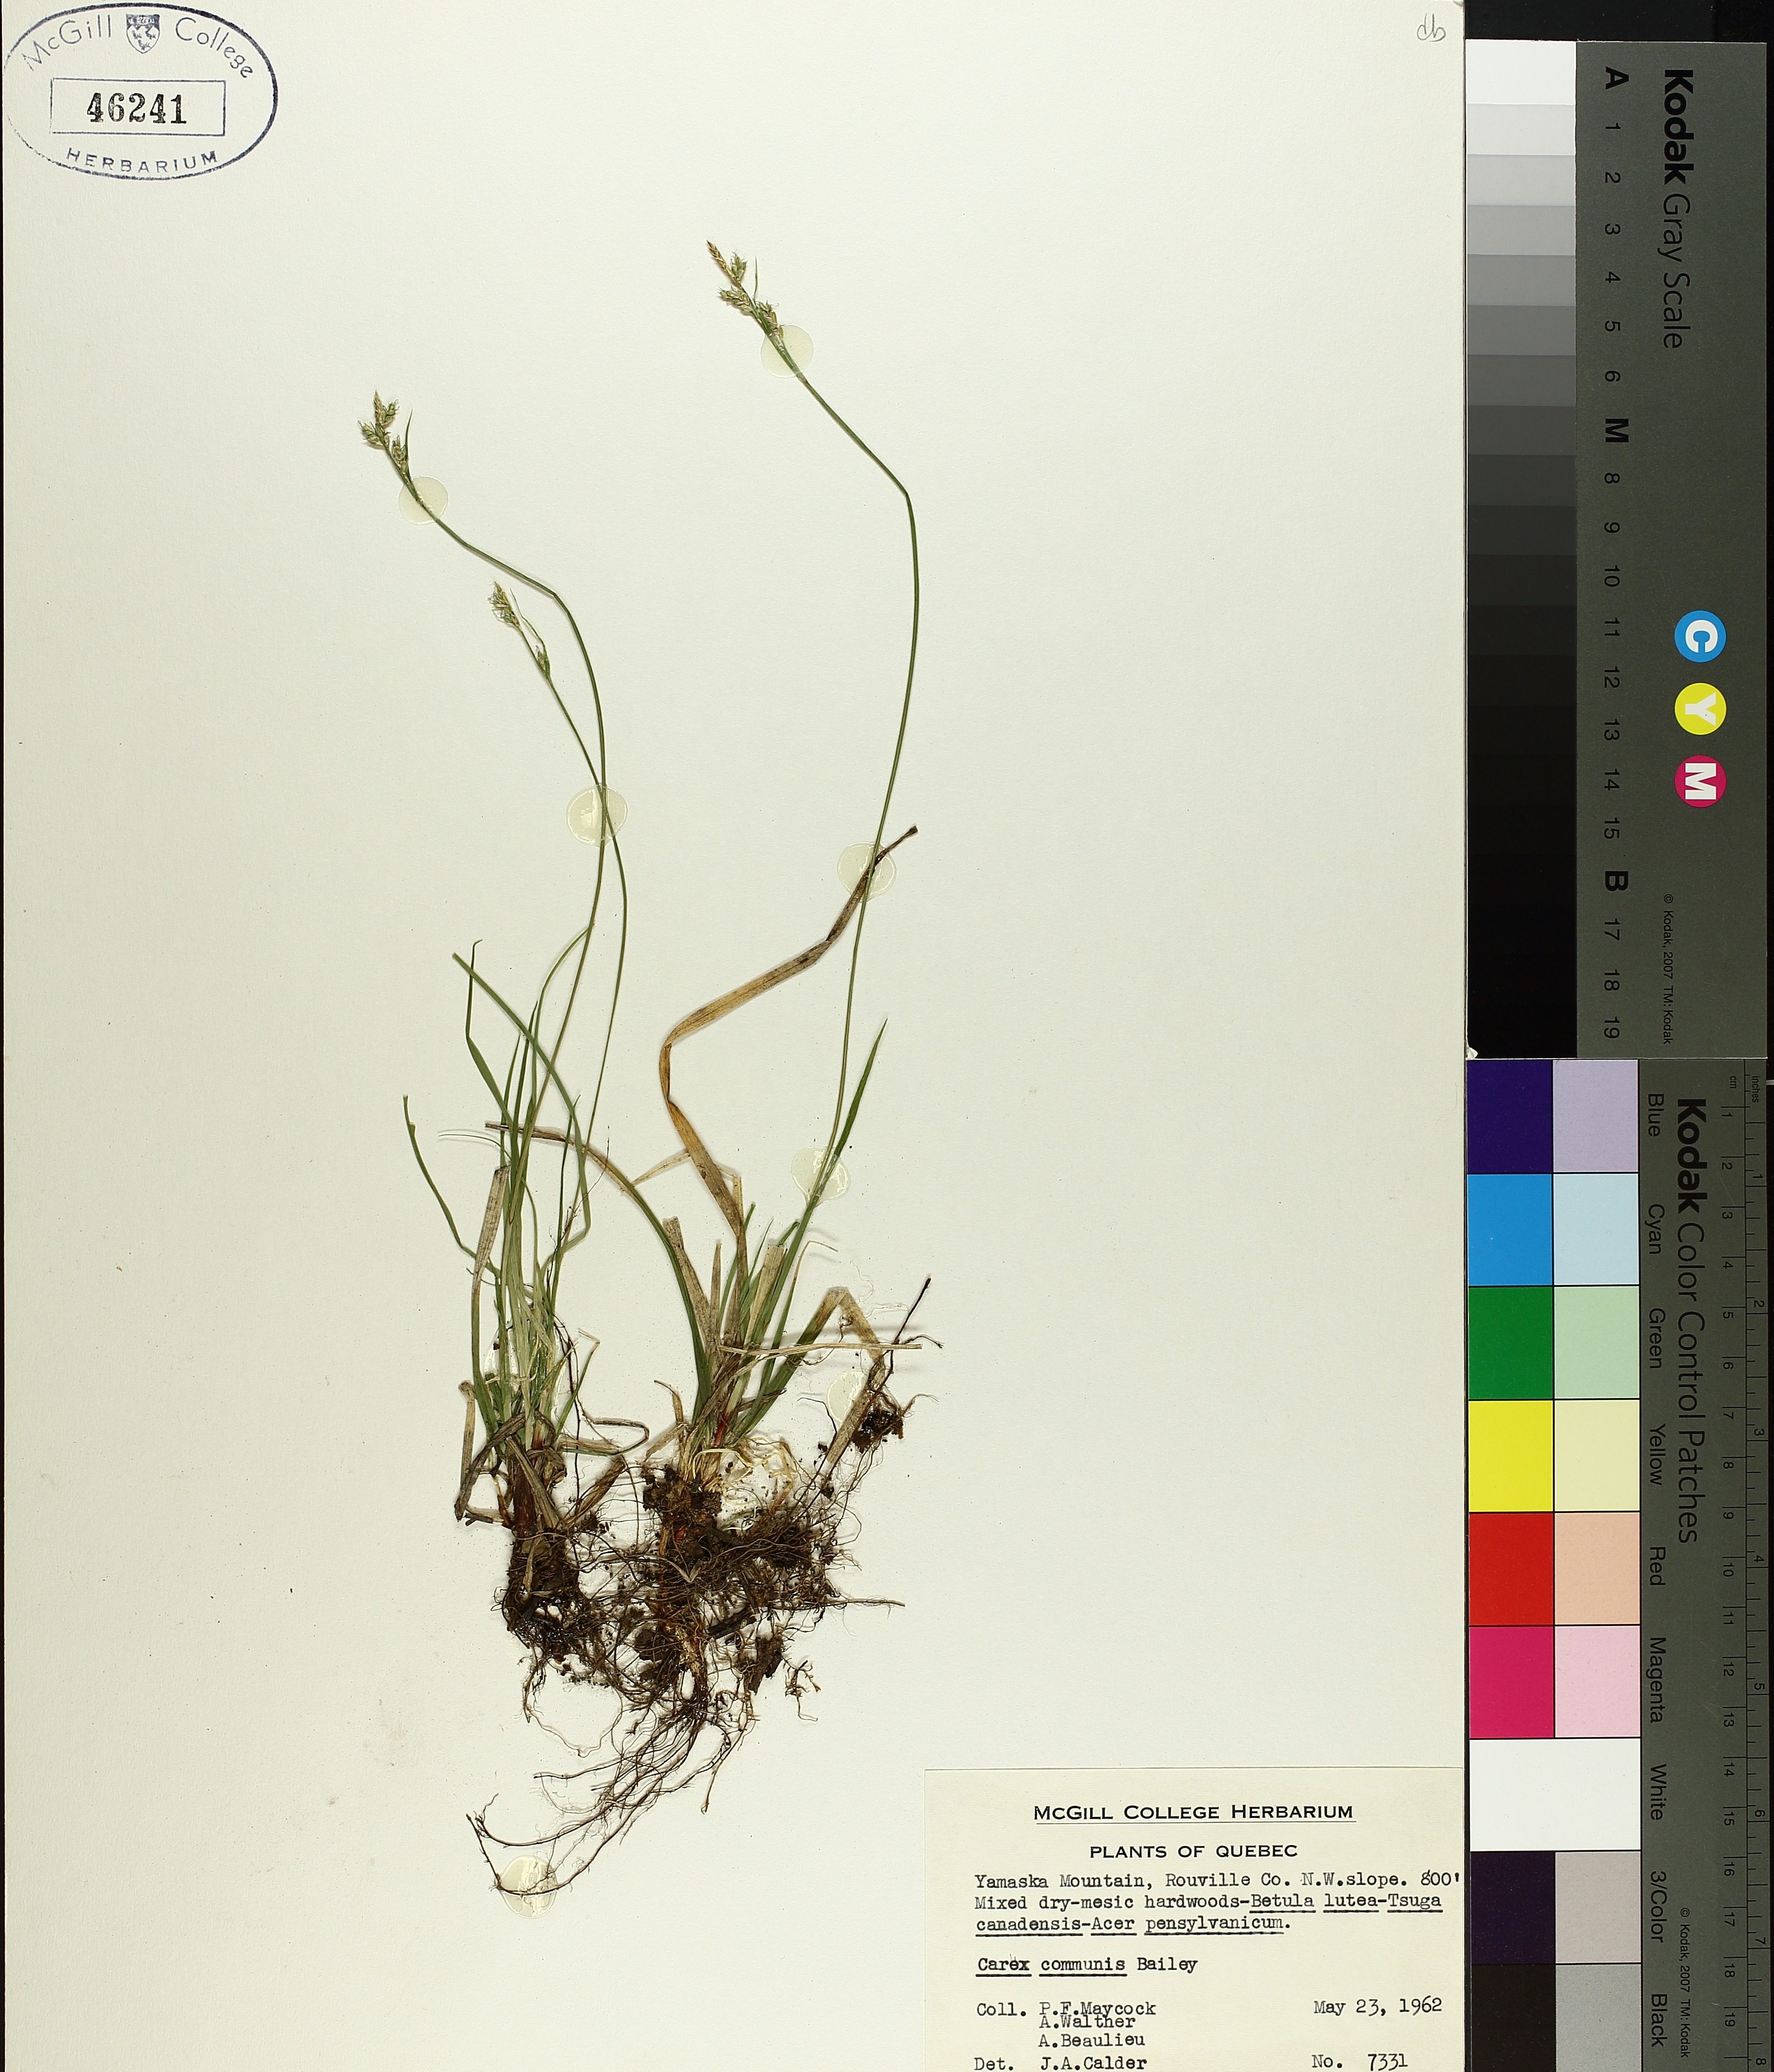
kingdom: Plantae
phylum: Tracheophyta
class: Liliopsida
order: Poales
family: Cyperaceae
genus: Carex
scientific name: Carex communis
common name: Colonial oak sedge
